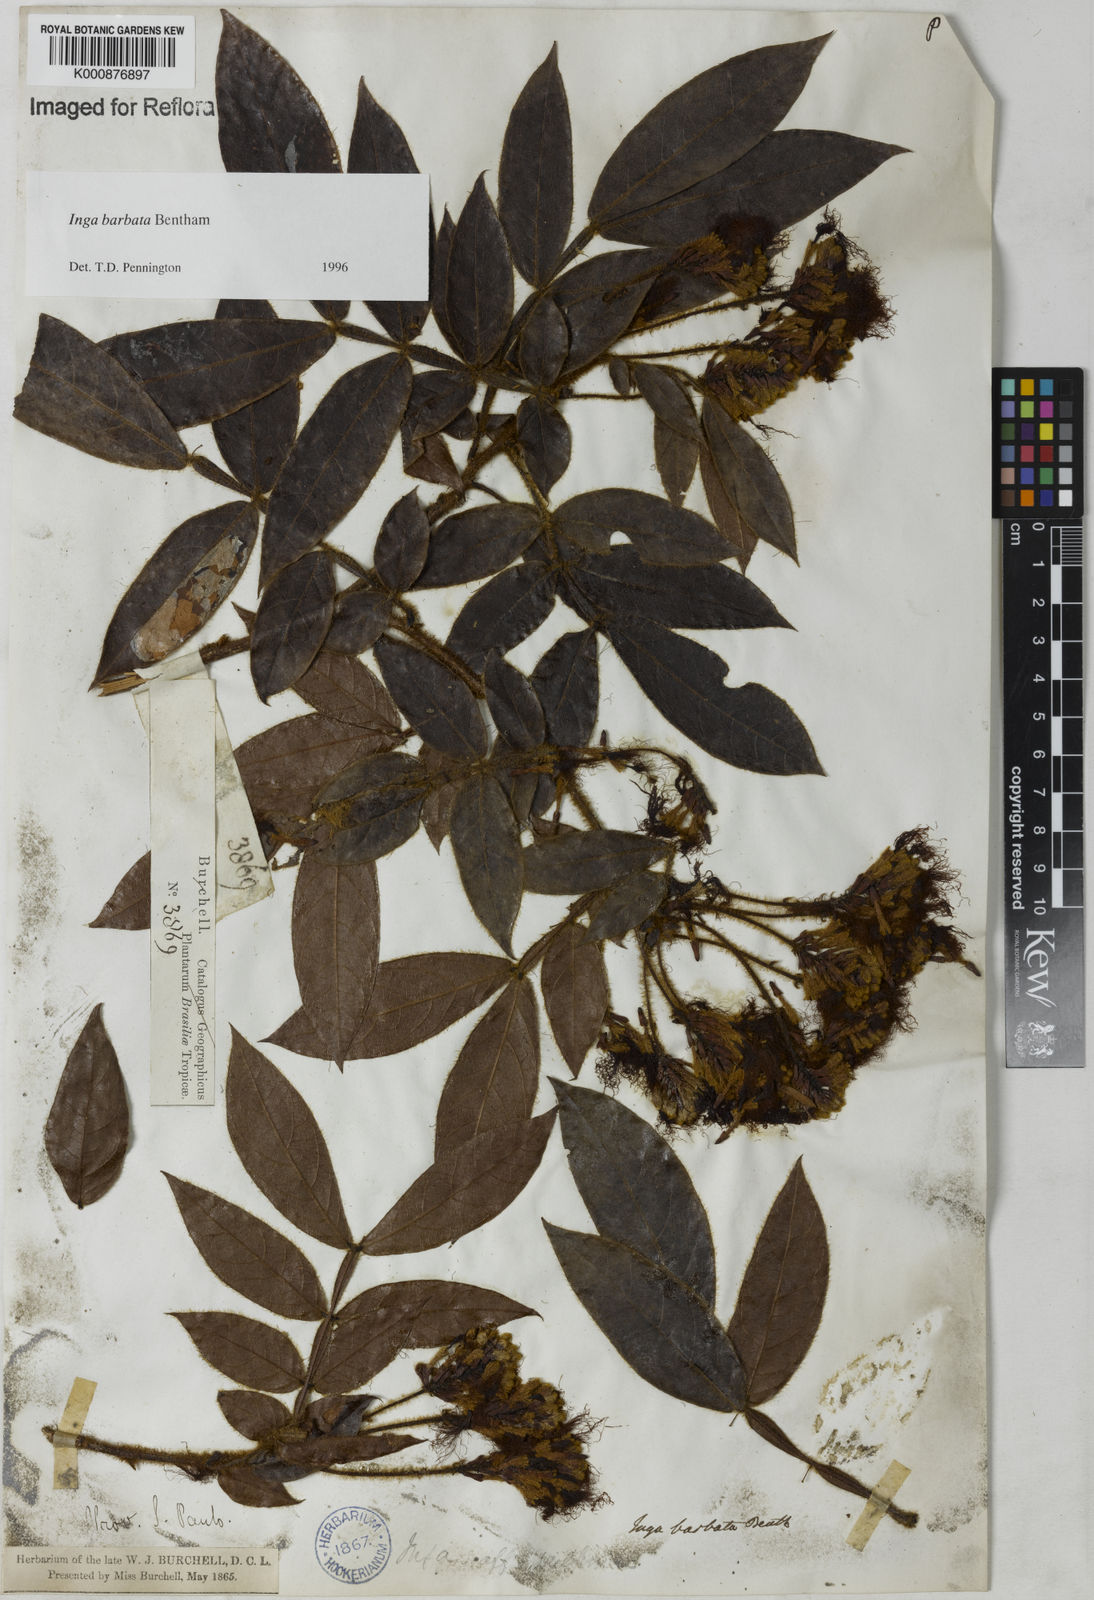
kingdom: Plantae
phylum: Tracheophyta
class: Magnoliopsida
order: Fabales
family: Fabaceae
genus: Inga
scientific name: Inga barbata
